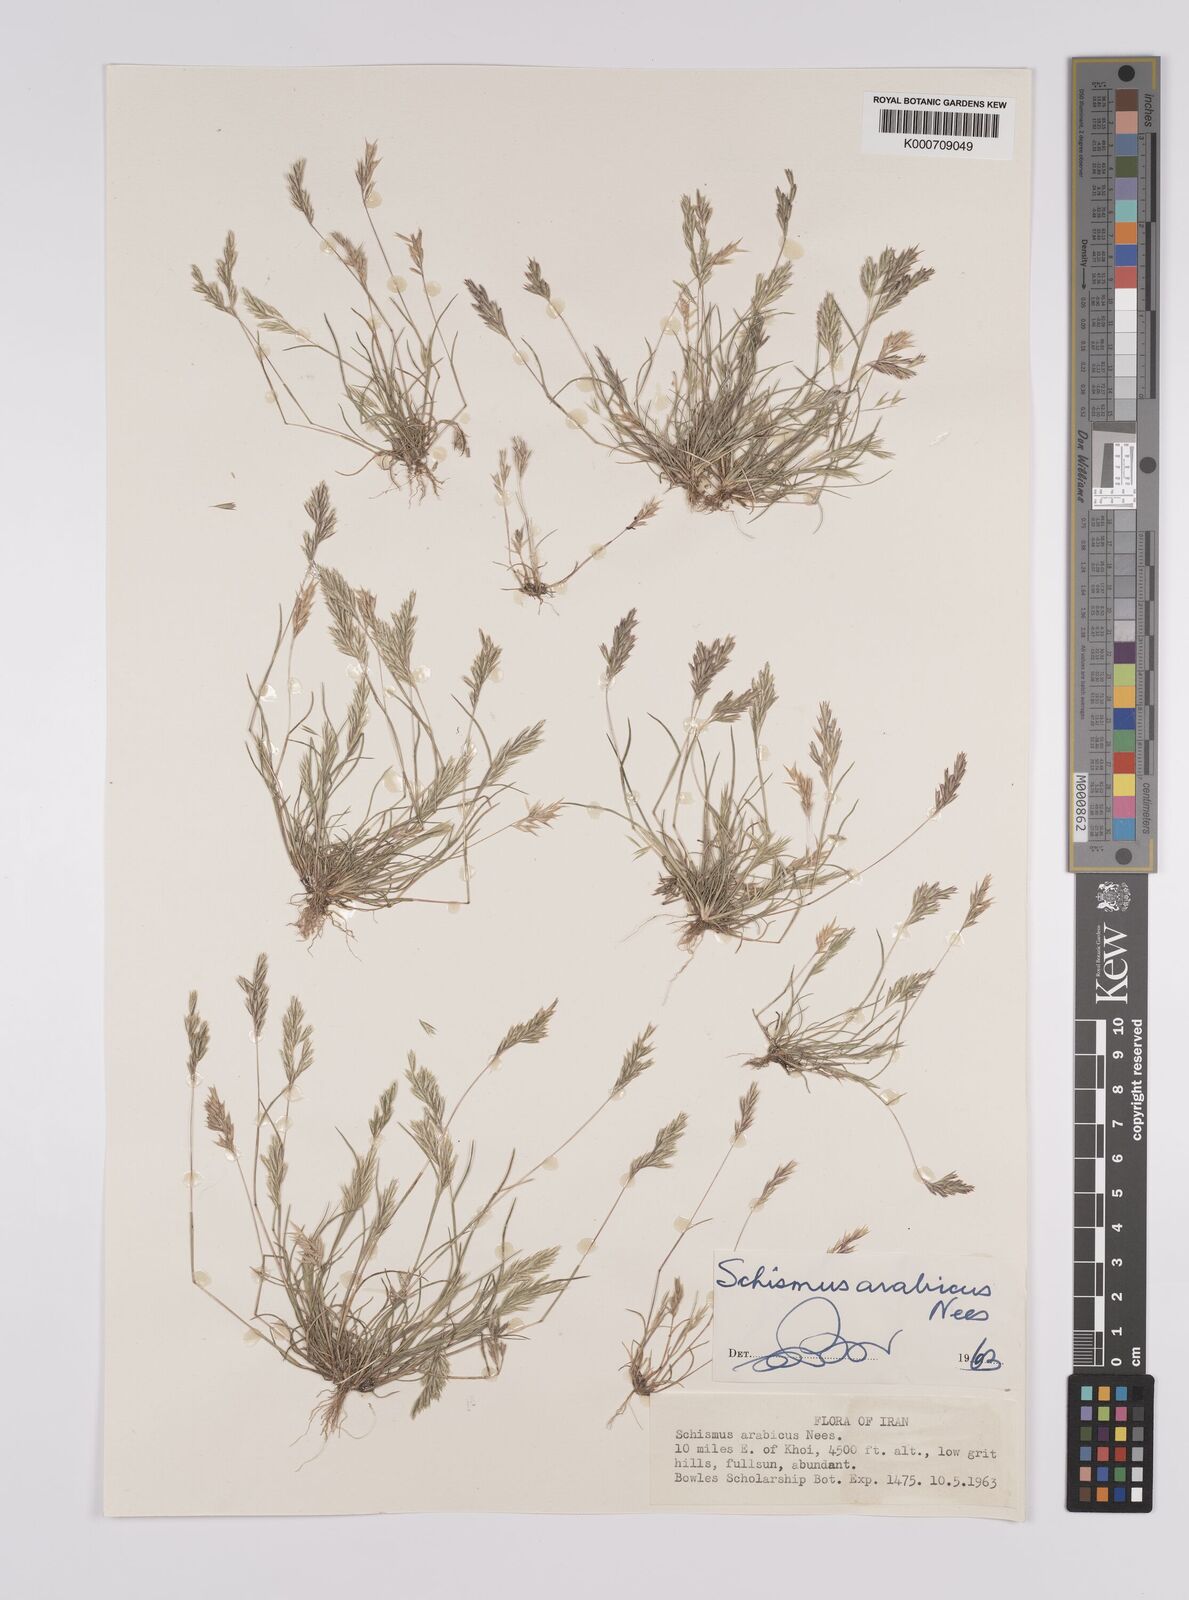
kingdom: Plantae
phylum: Tracheophyta
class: Liliopsida
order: Poales
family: Poaceae
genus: Schismus
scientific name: Schismus arabicus
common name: Arabian schismus
